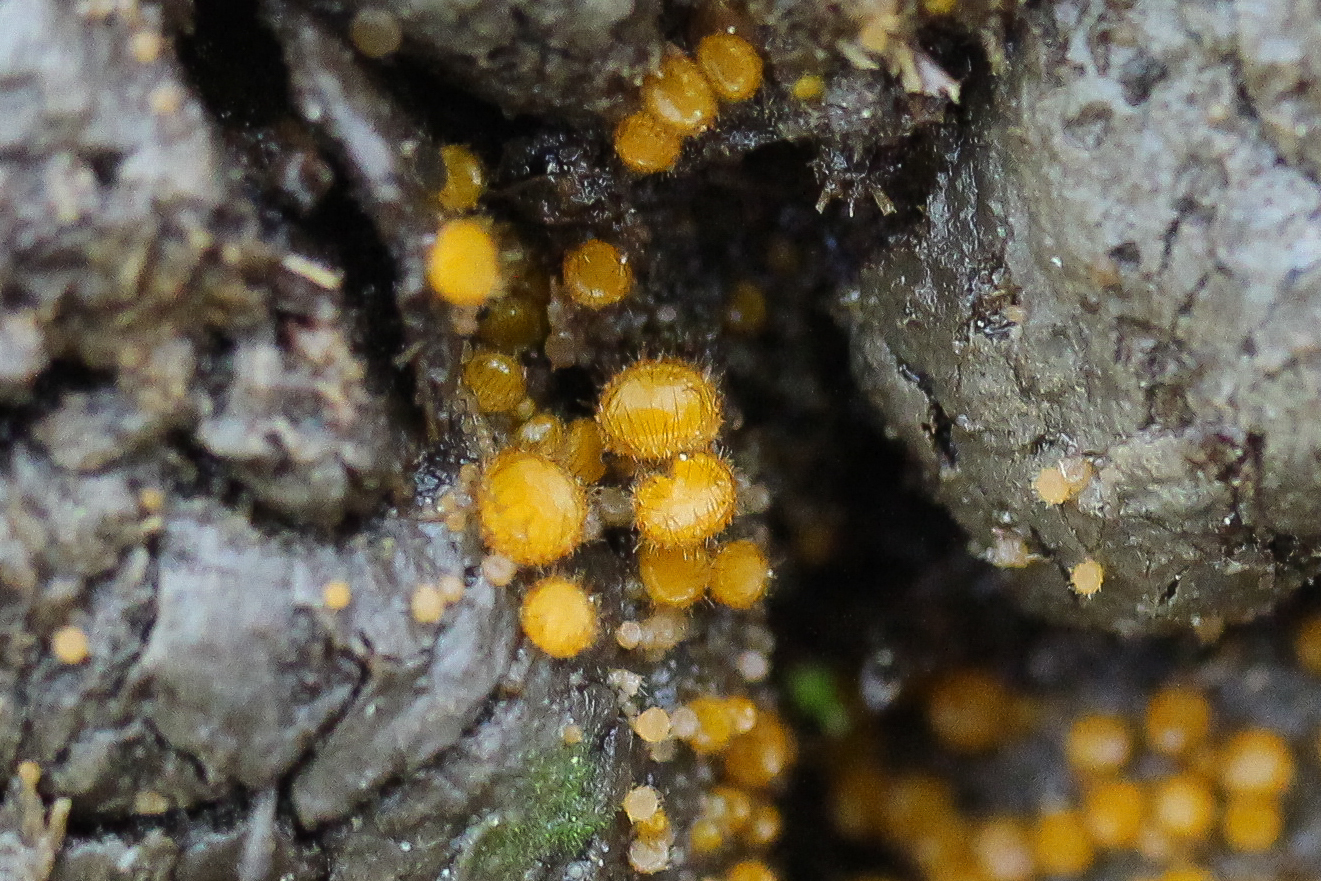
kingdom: Fungi
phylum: Ascomycota
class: Pezizomycetes
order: Pezizales
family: Pyronemataceae
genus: Cheilymenia
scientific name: Cheilymenia stercorea
